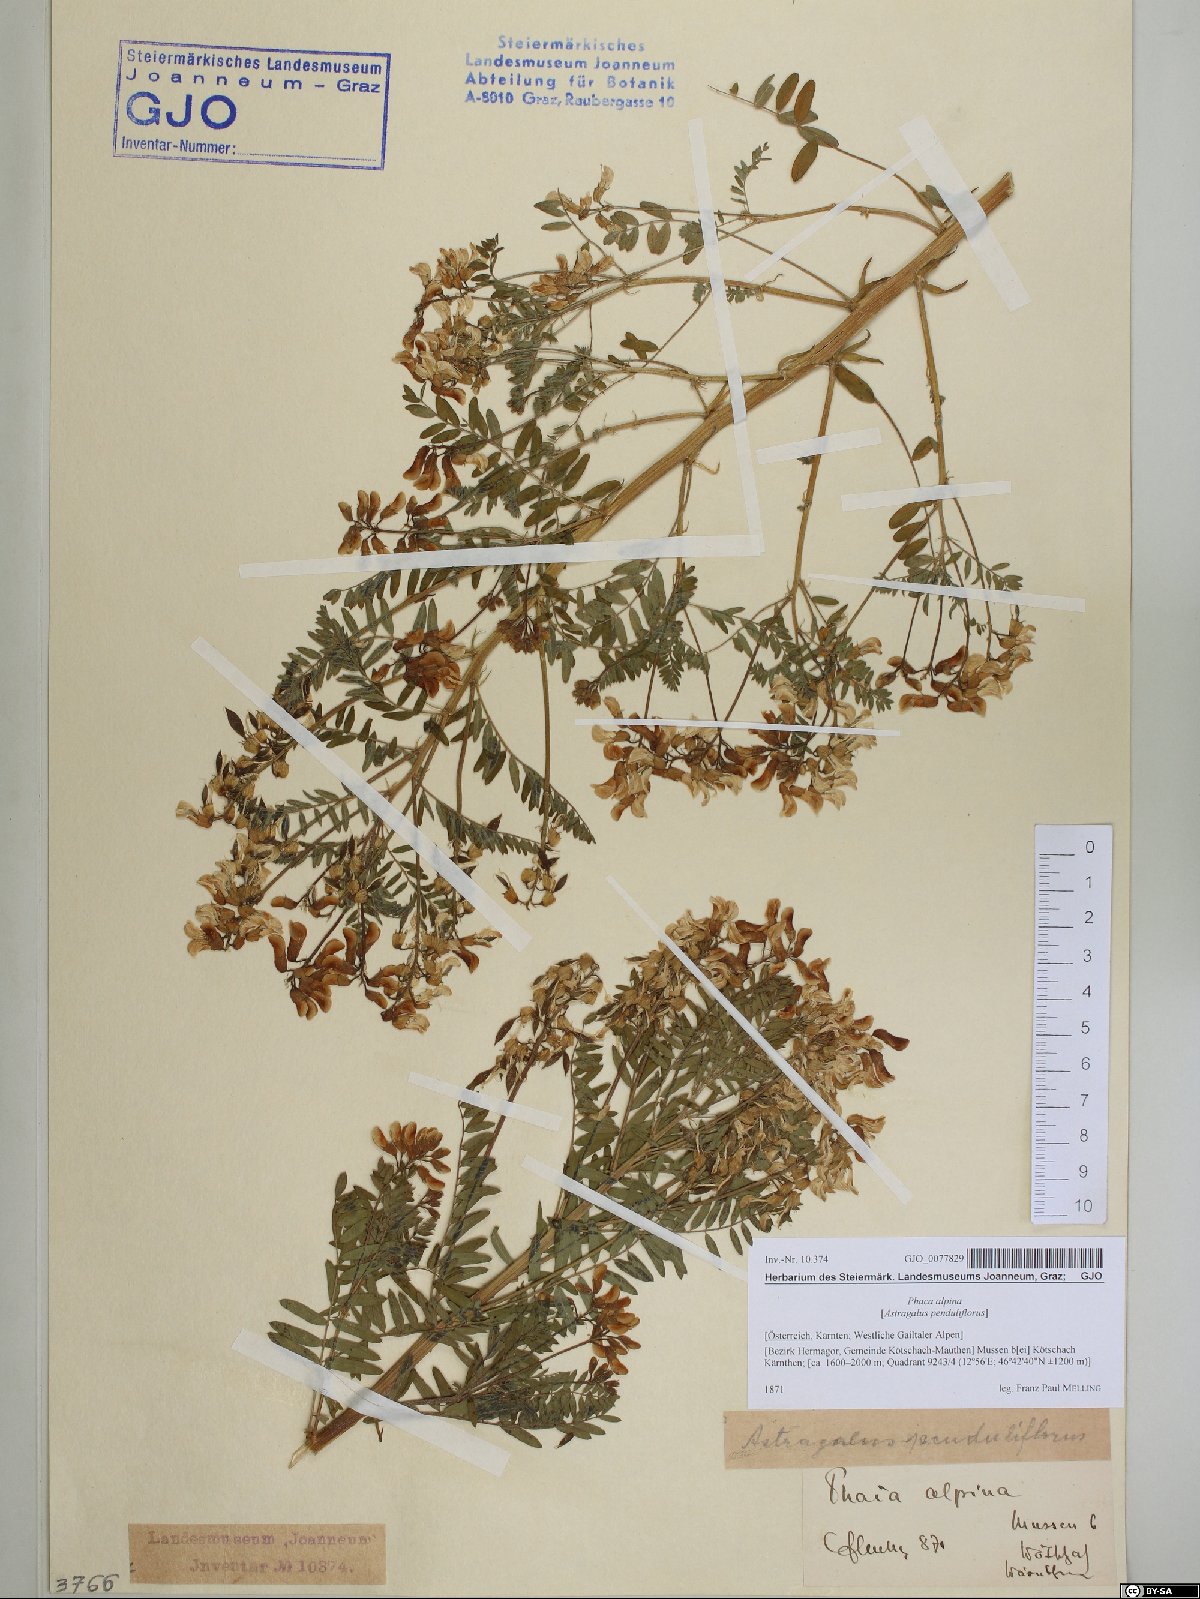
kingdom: Plantae
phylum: Tracheophyta
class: Magnoliopsida
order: Fabales
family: Fabaceae
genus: Astragalus
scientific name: Astragalus penduliflorus
